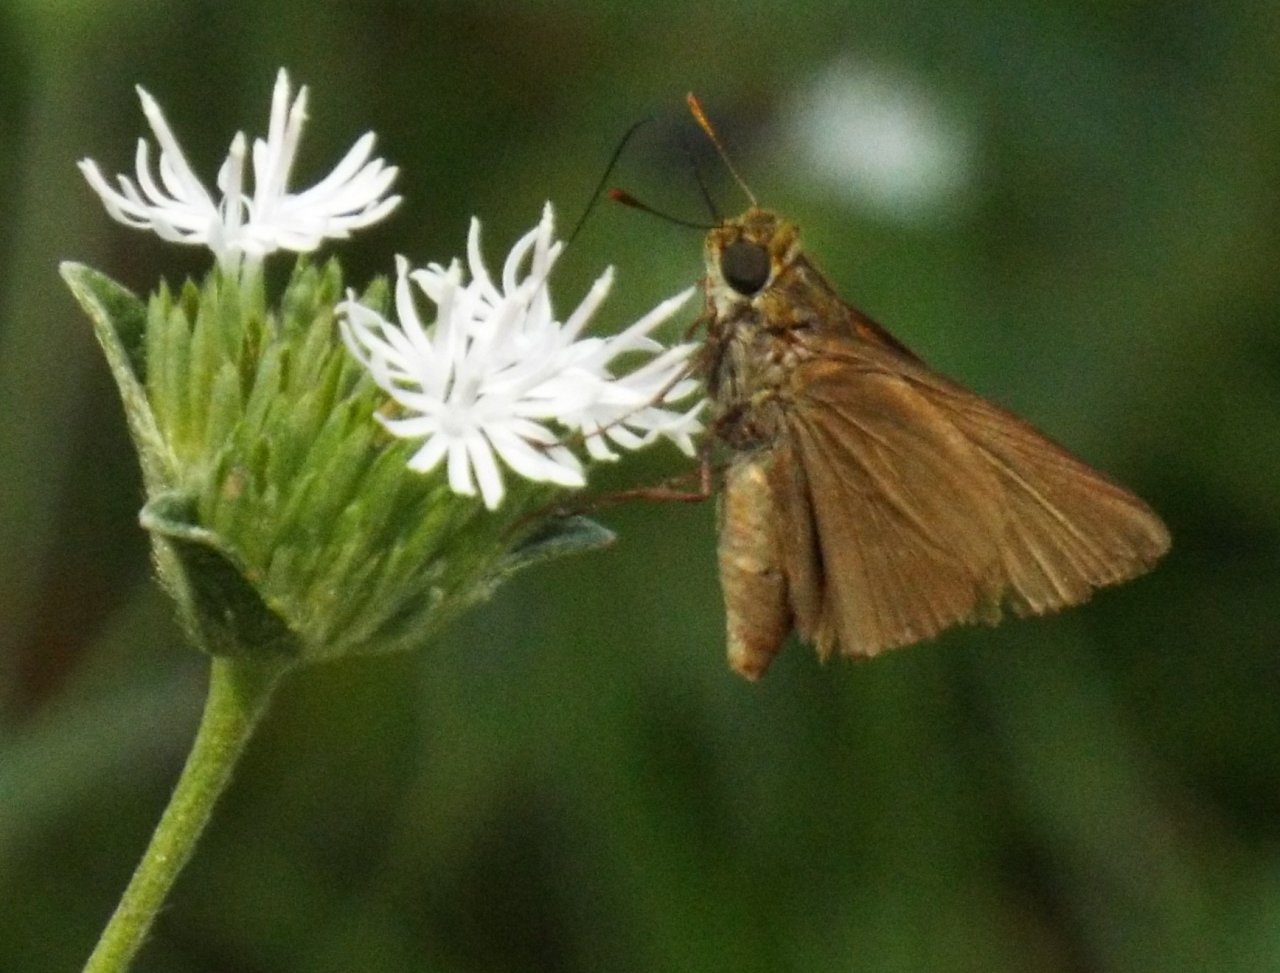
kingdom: Animalia
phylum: Arthropoda
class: Insecta
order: Lepidoptera
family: Hesperiidae
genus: Euphyes
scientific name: Euphyes vestris
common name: Dun Skipper
